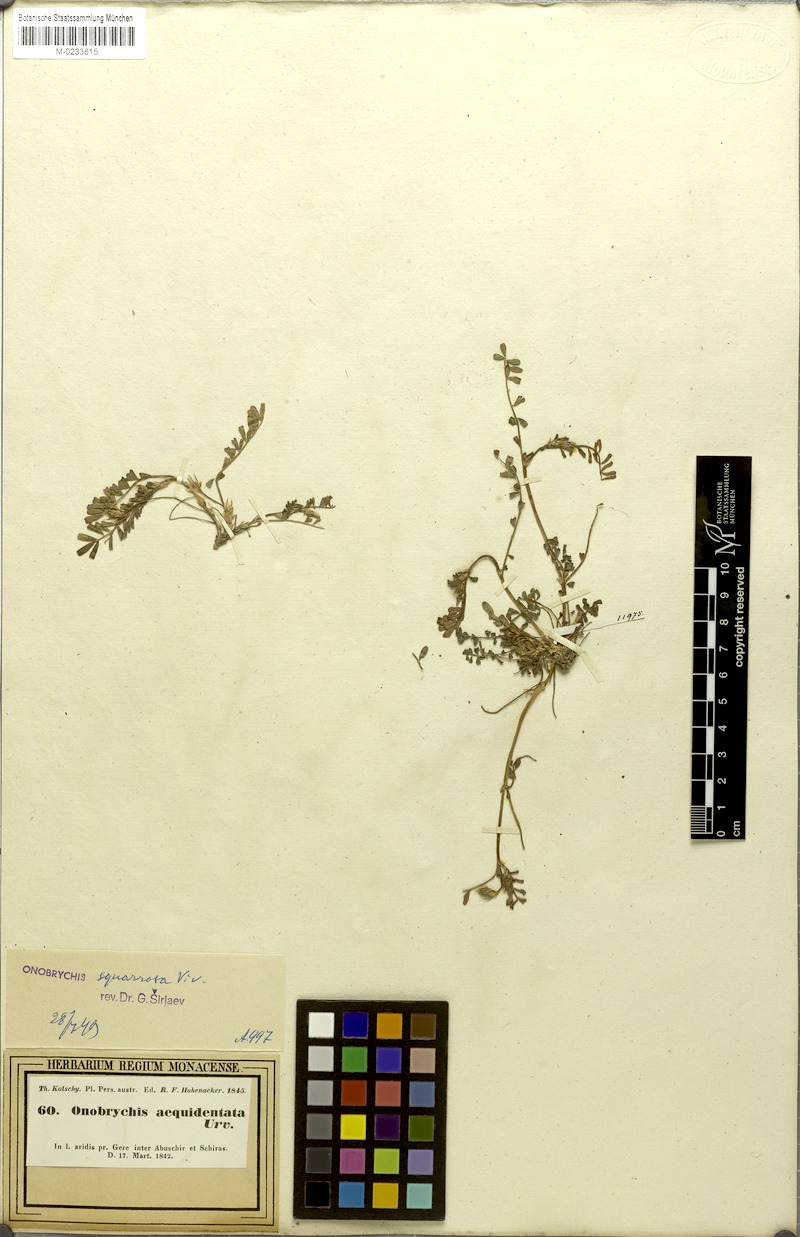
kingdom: Plantae
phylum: Tracheophyta
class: Magnoliopsida
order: Fabales
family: Fabaceae
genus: Onobrychis
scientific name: Onobrychis squarrosa
